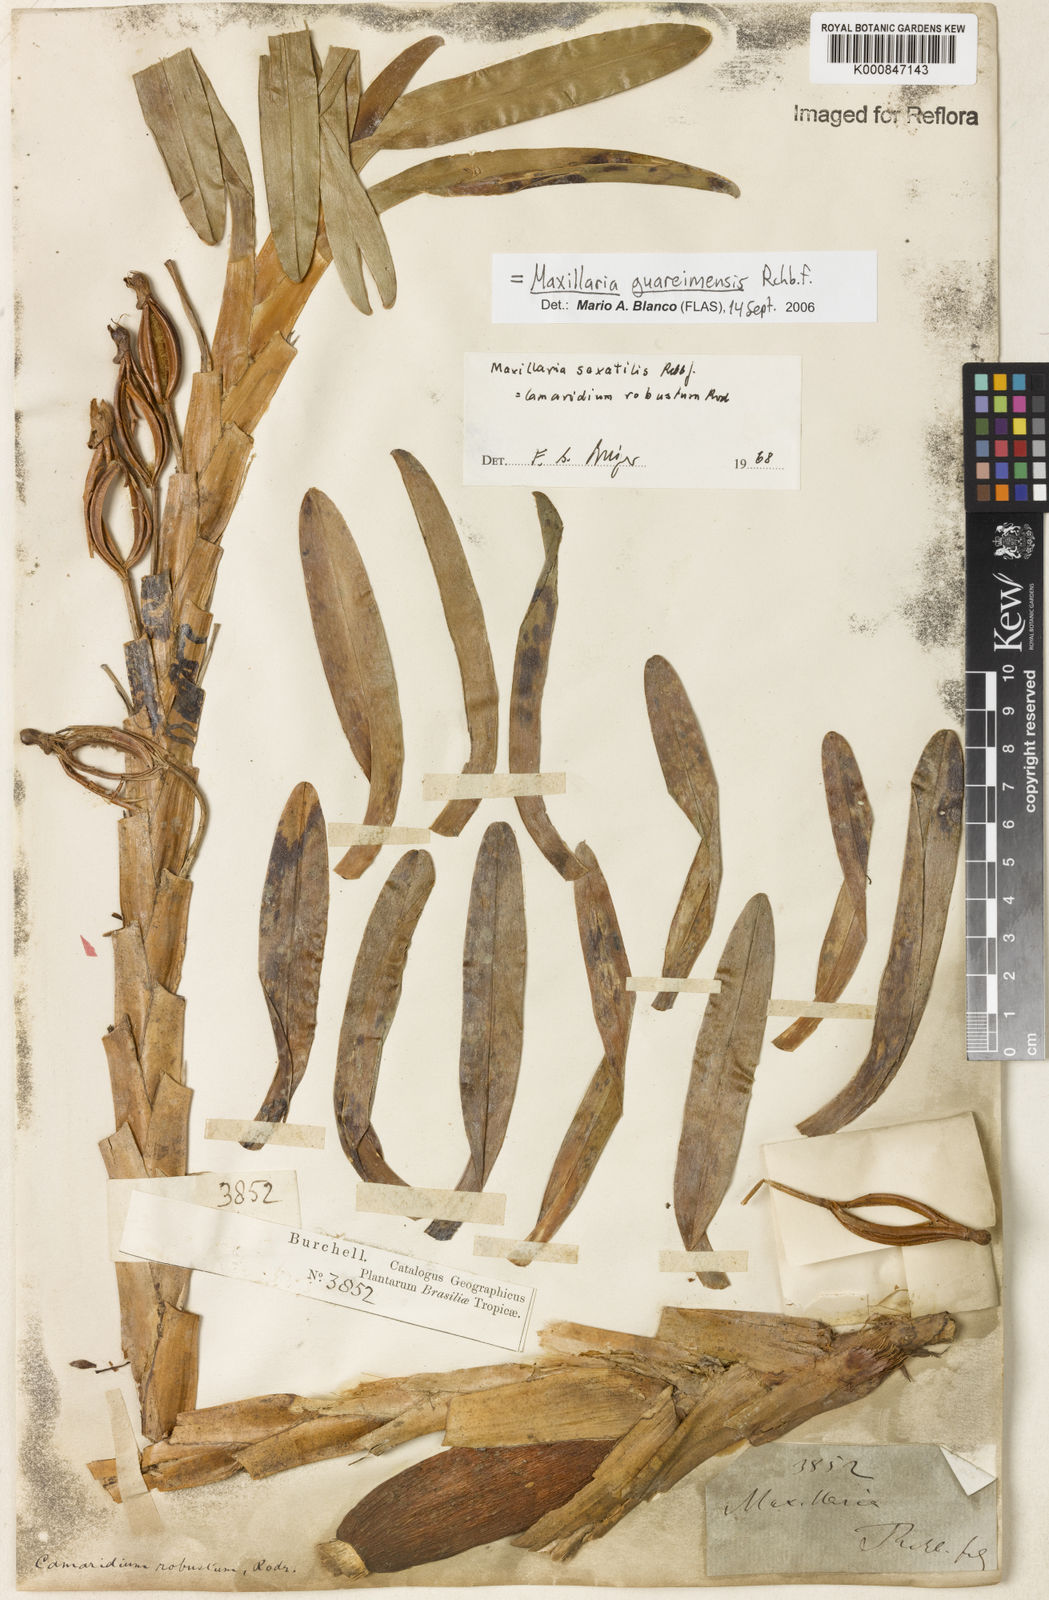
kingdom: Plantae
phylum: Tracheophyta
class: Liliopsida
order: Asparagales
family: Orchidaceae
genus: Maxillaria
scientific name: Maxillaria guareimensis
